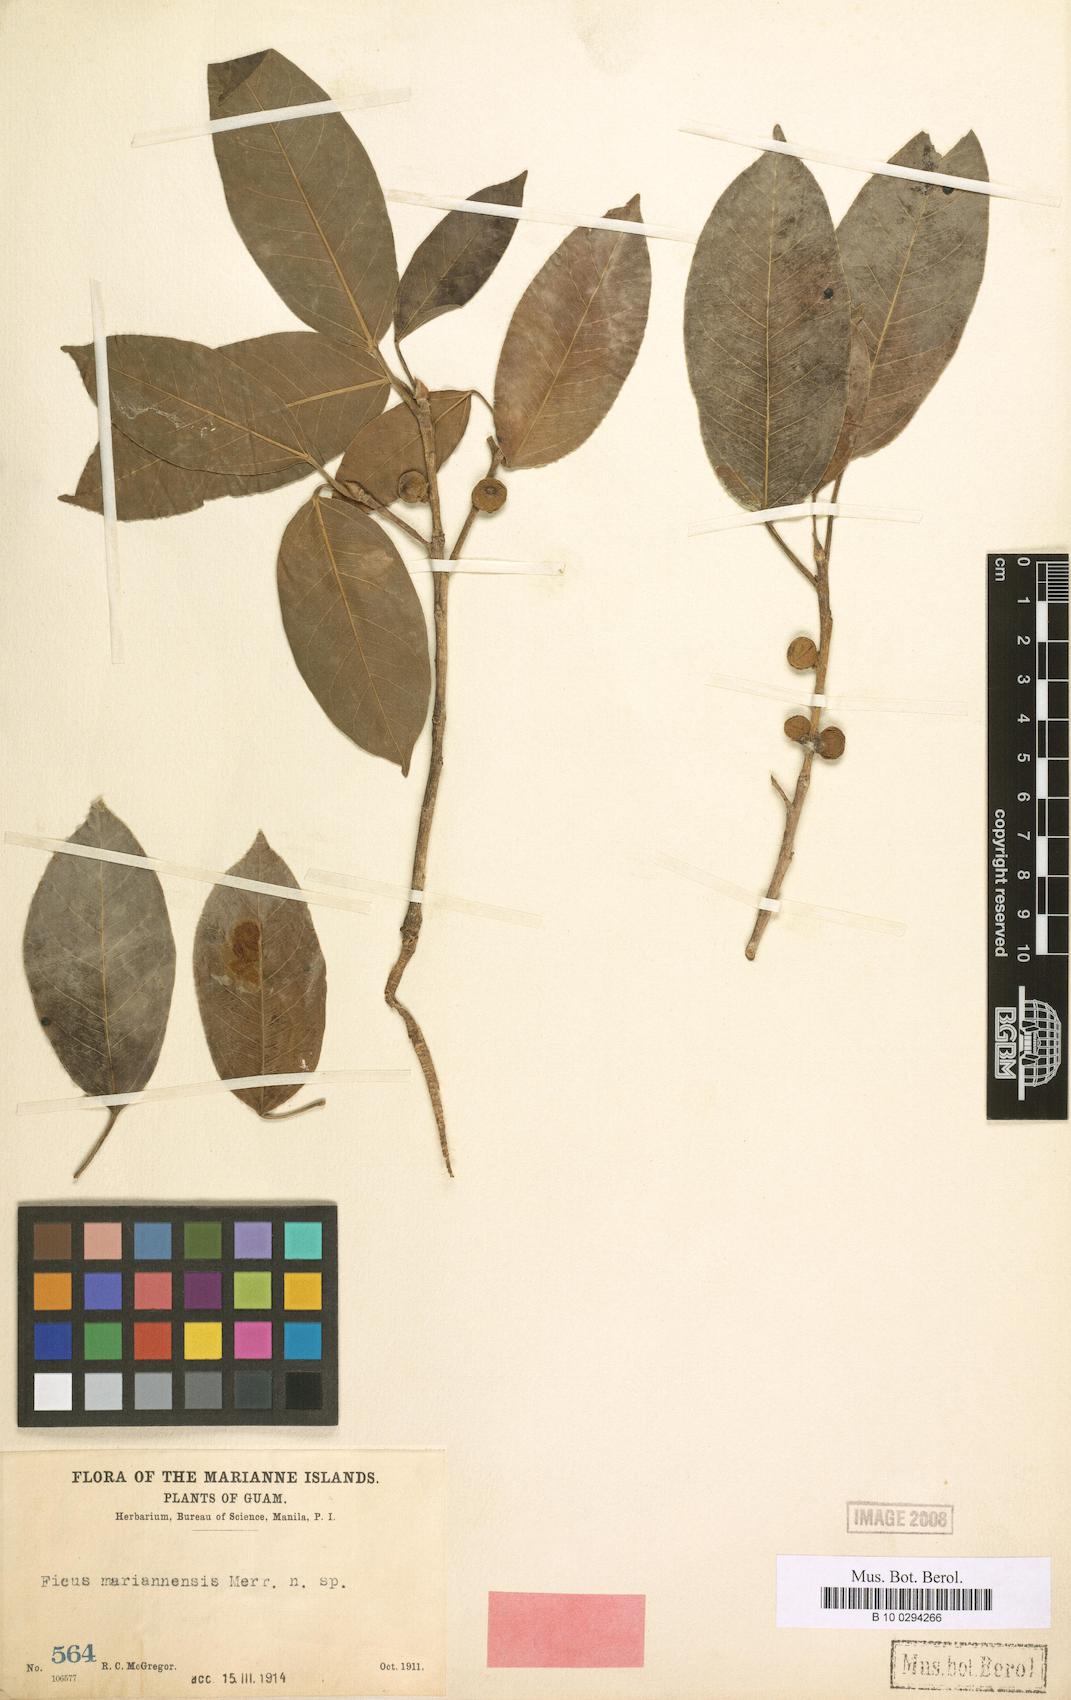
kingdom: Plantae
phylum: Tracheophyta
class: Magnoliopsida
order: Rosales
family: Moraceae
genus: Ficus
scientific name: Ficus prolixa
